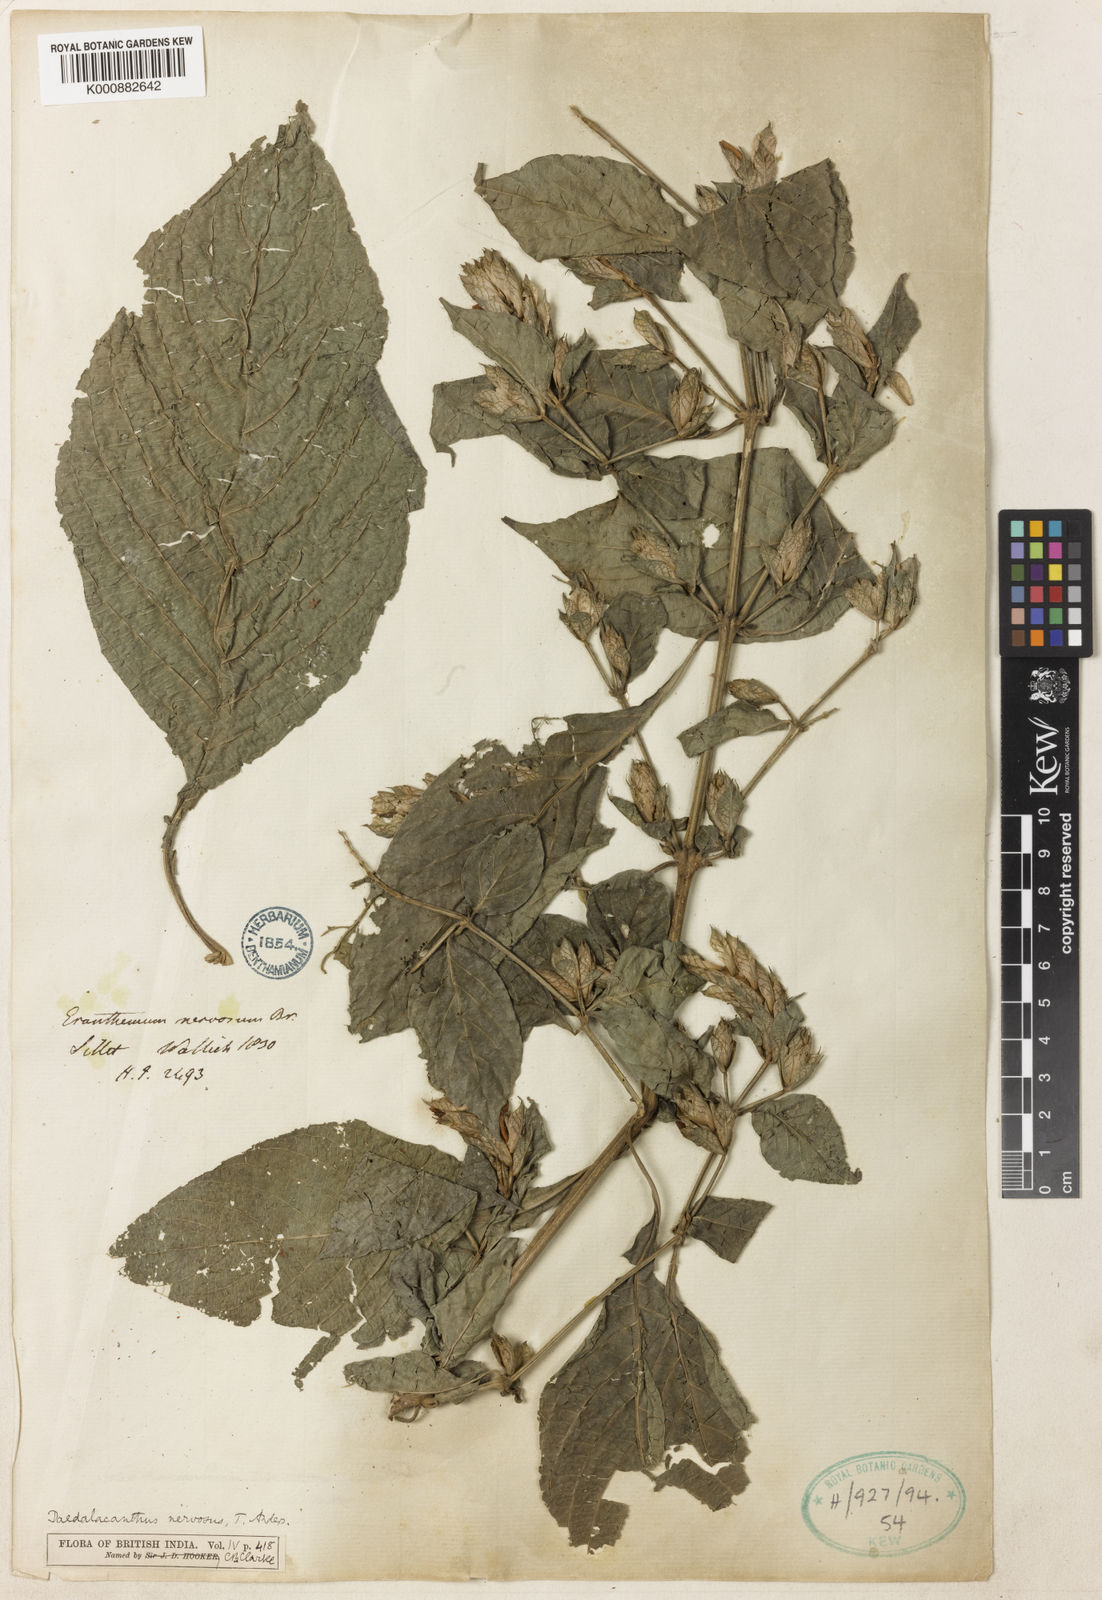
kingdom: Plantae
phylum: Tracheophyta
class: Magnoliopsida
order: Lamiales
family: Acanthaceae
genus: Eranthemum
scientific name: Eranthemum pulchellum
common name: Blue-sage
